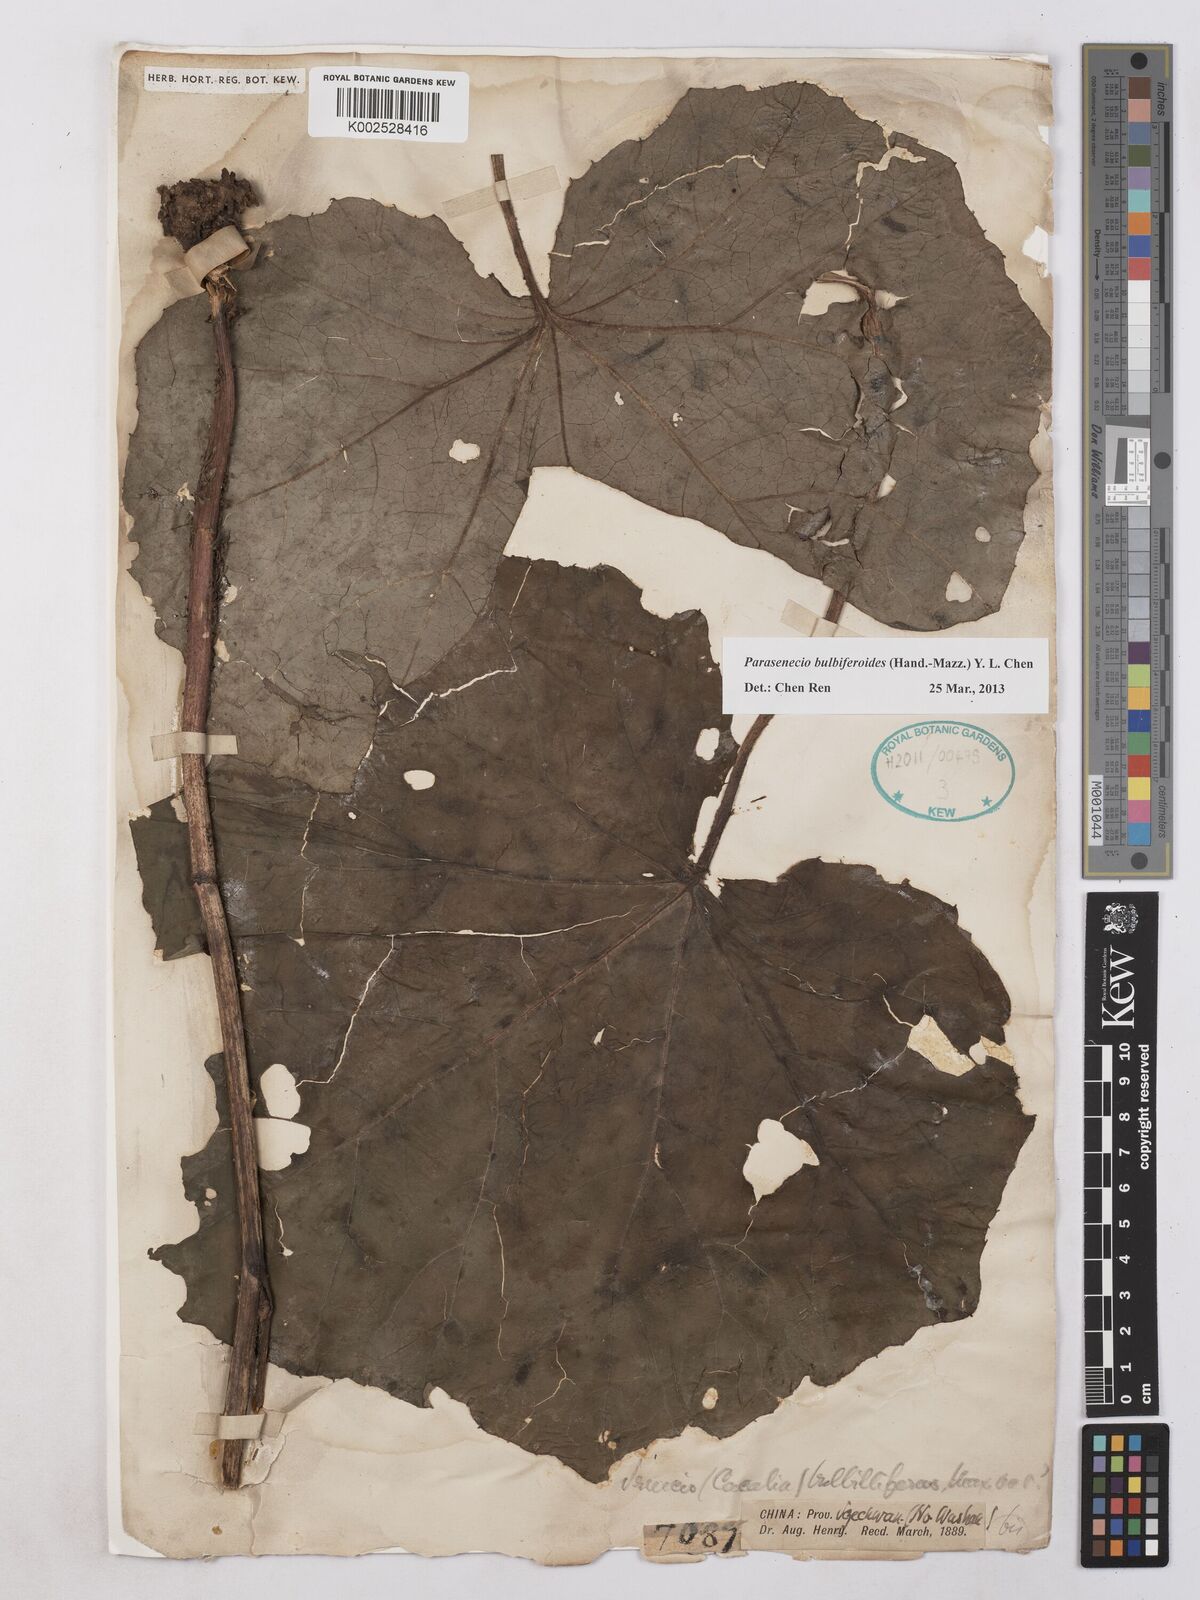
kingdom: Plantae
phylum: Tracheophyta
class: Magnoliopsida
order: Asterales
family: Asteraceae
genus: Parasenecio
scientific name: Parasenecio bulbiferoides
